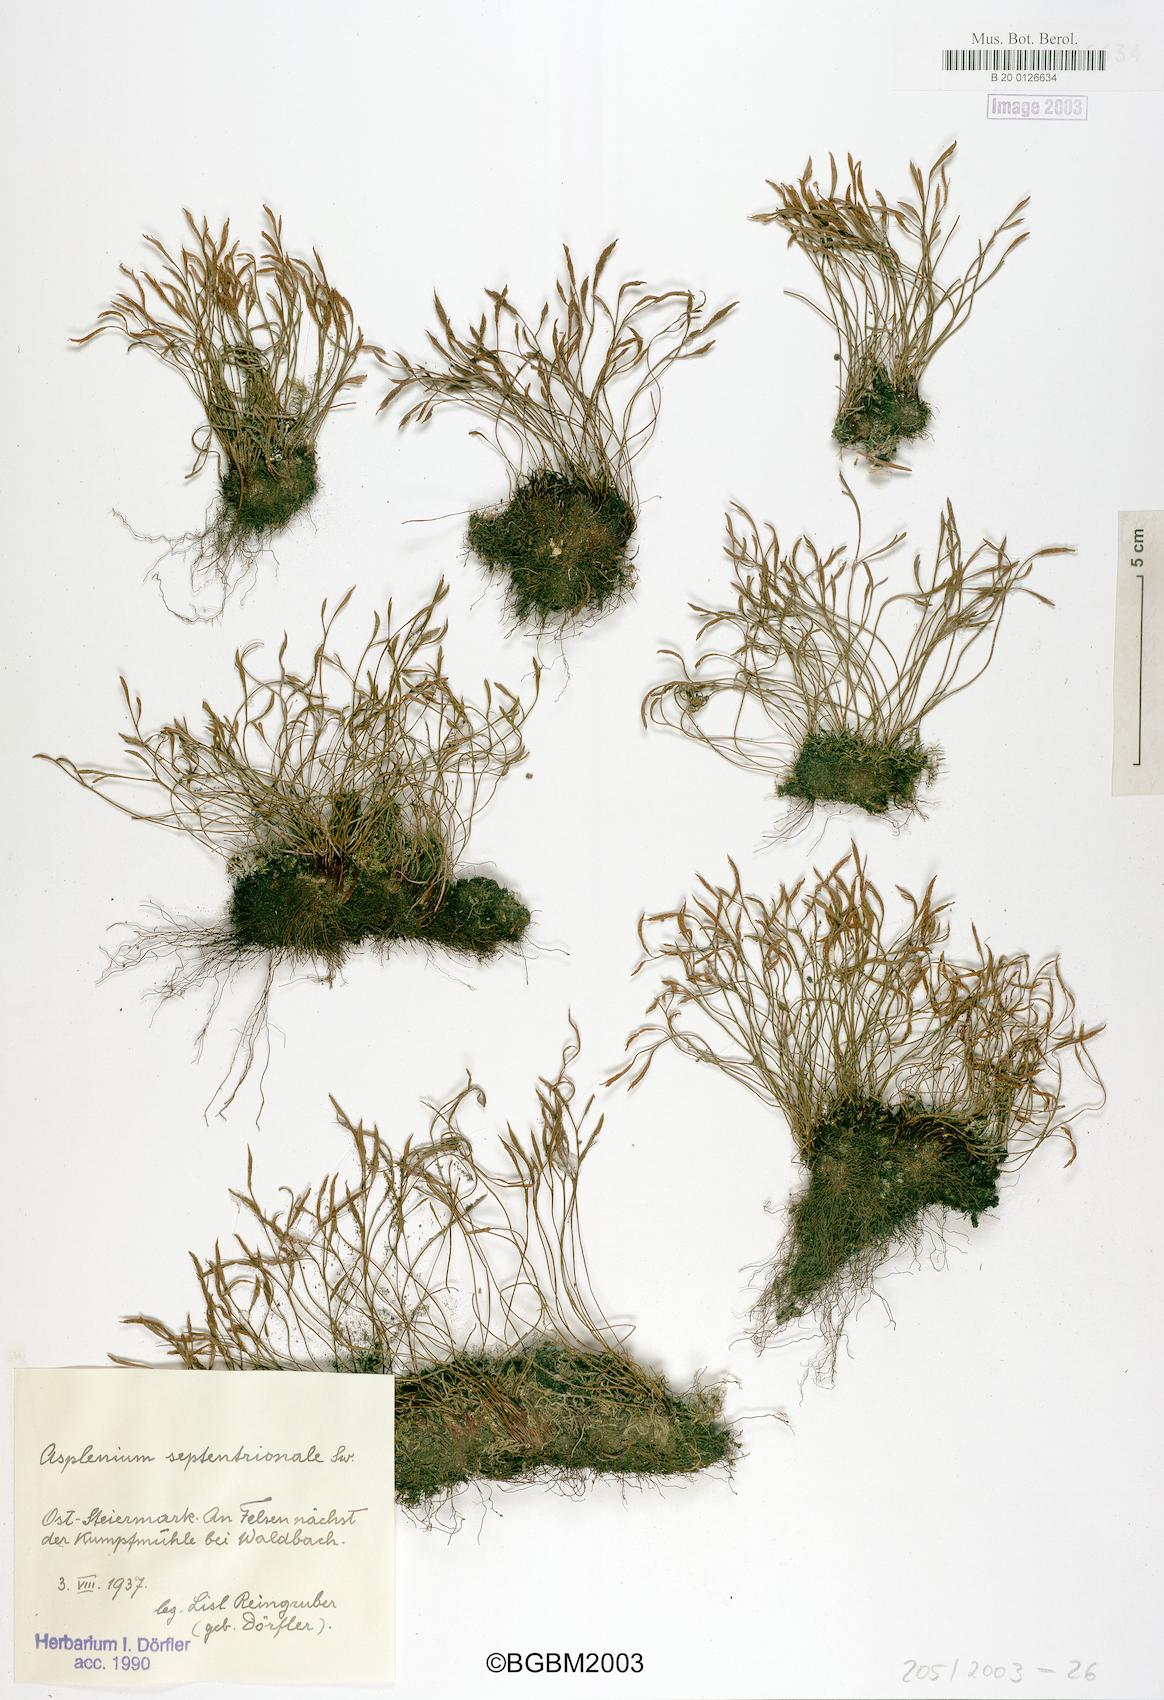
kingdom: Plantae
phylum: Tracheophyta
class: Polypodiopsida
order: Polypodiales
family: Aspleniaceae
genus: Asplenium
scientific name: Asplenium septentrionale
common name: Forked spleenwort
